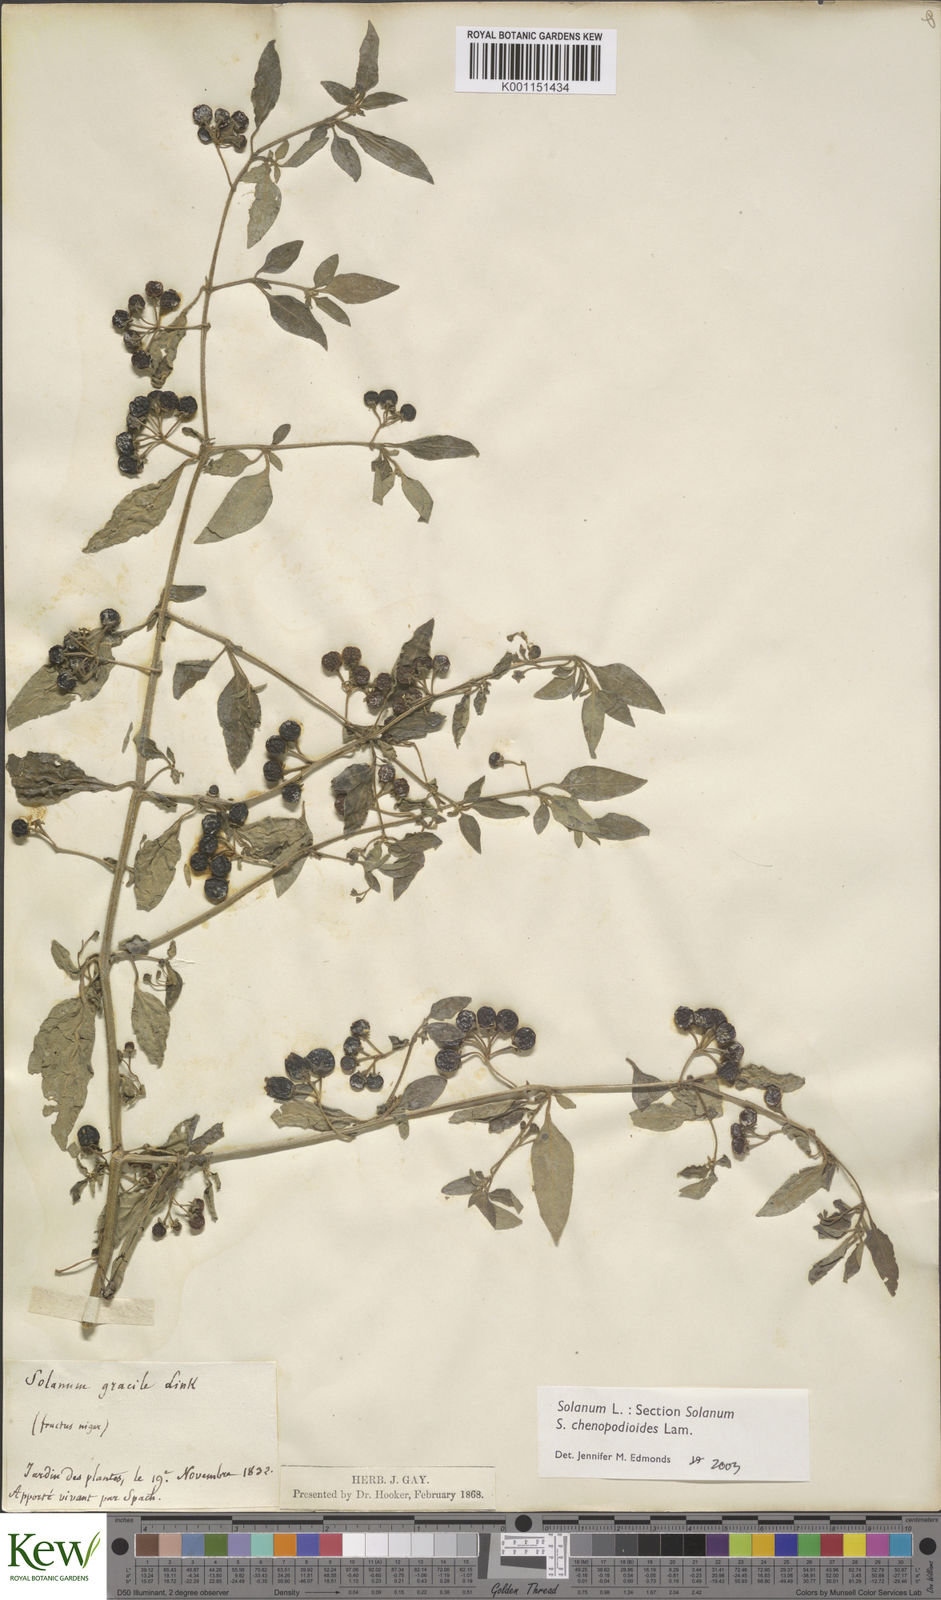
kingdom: Plantae
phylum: Tracheophyta
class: Magnoliopsida
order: Solanales
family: Solanaceae
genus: Solanum
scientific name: Solanum chenopodioides
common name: Tall nightshade
